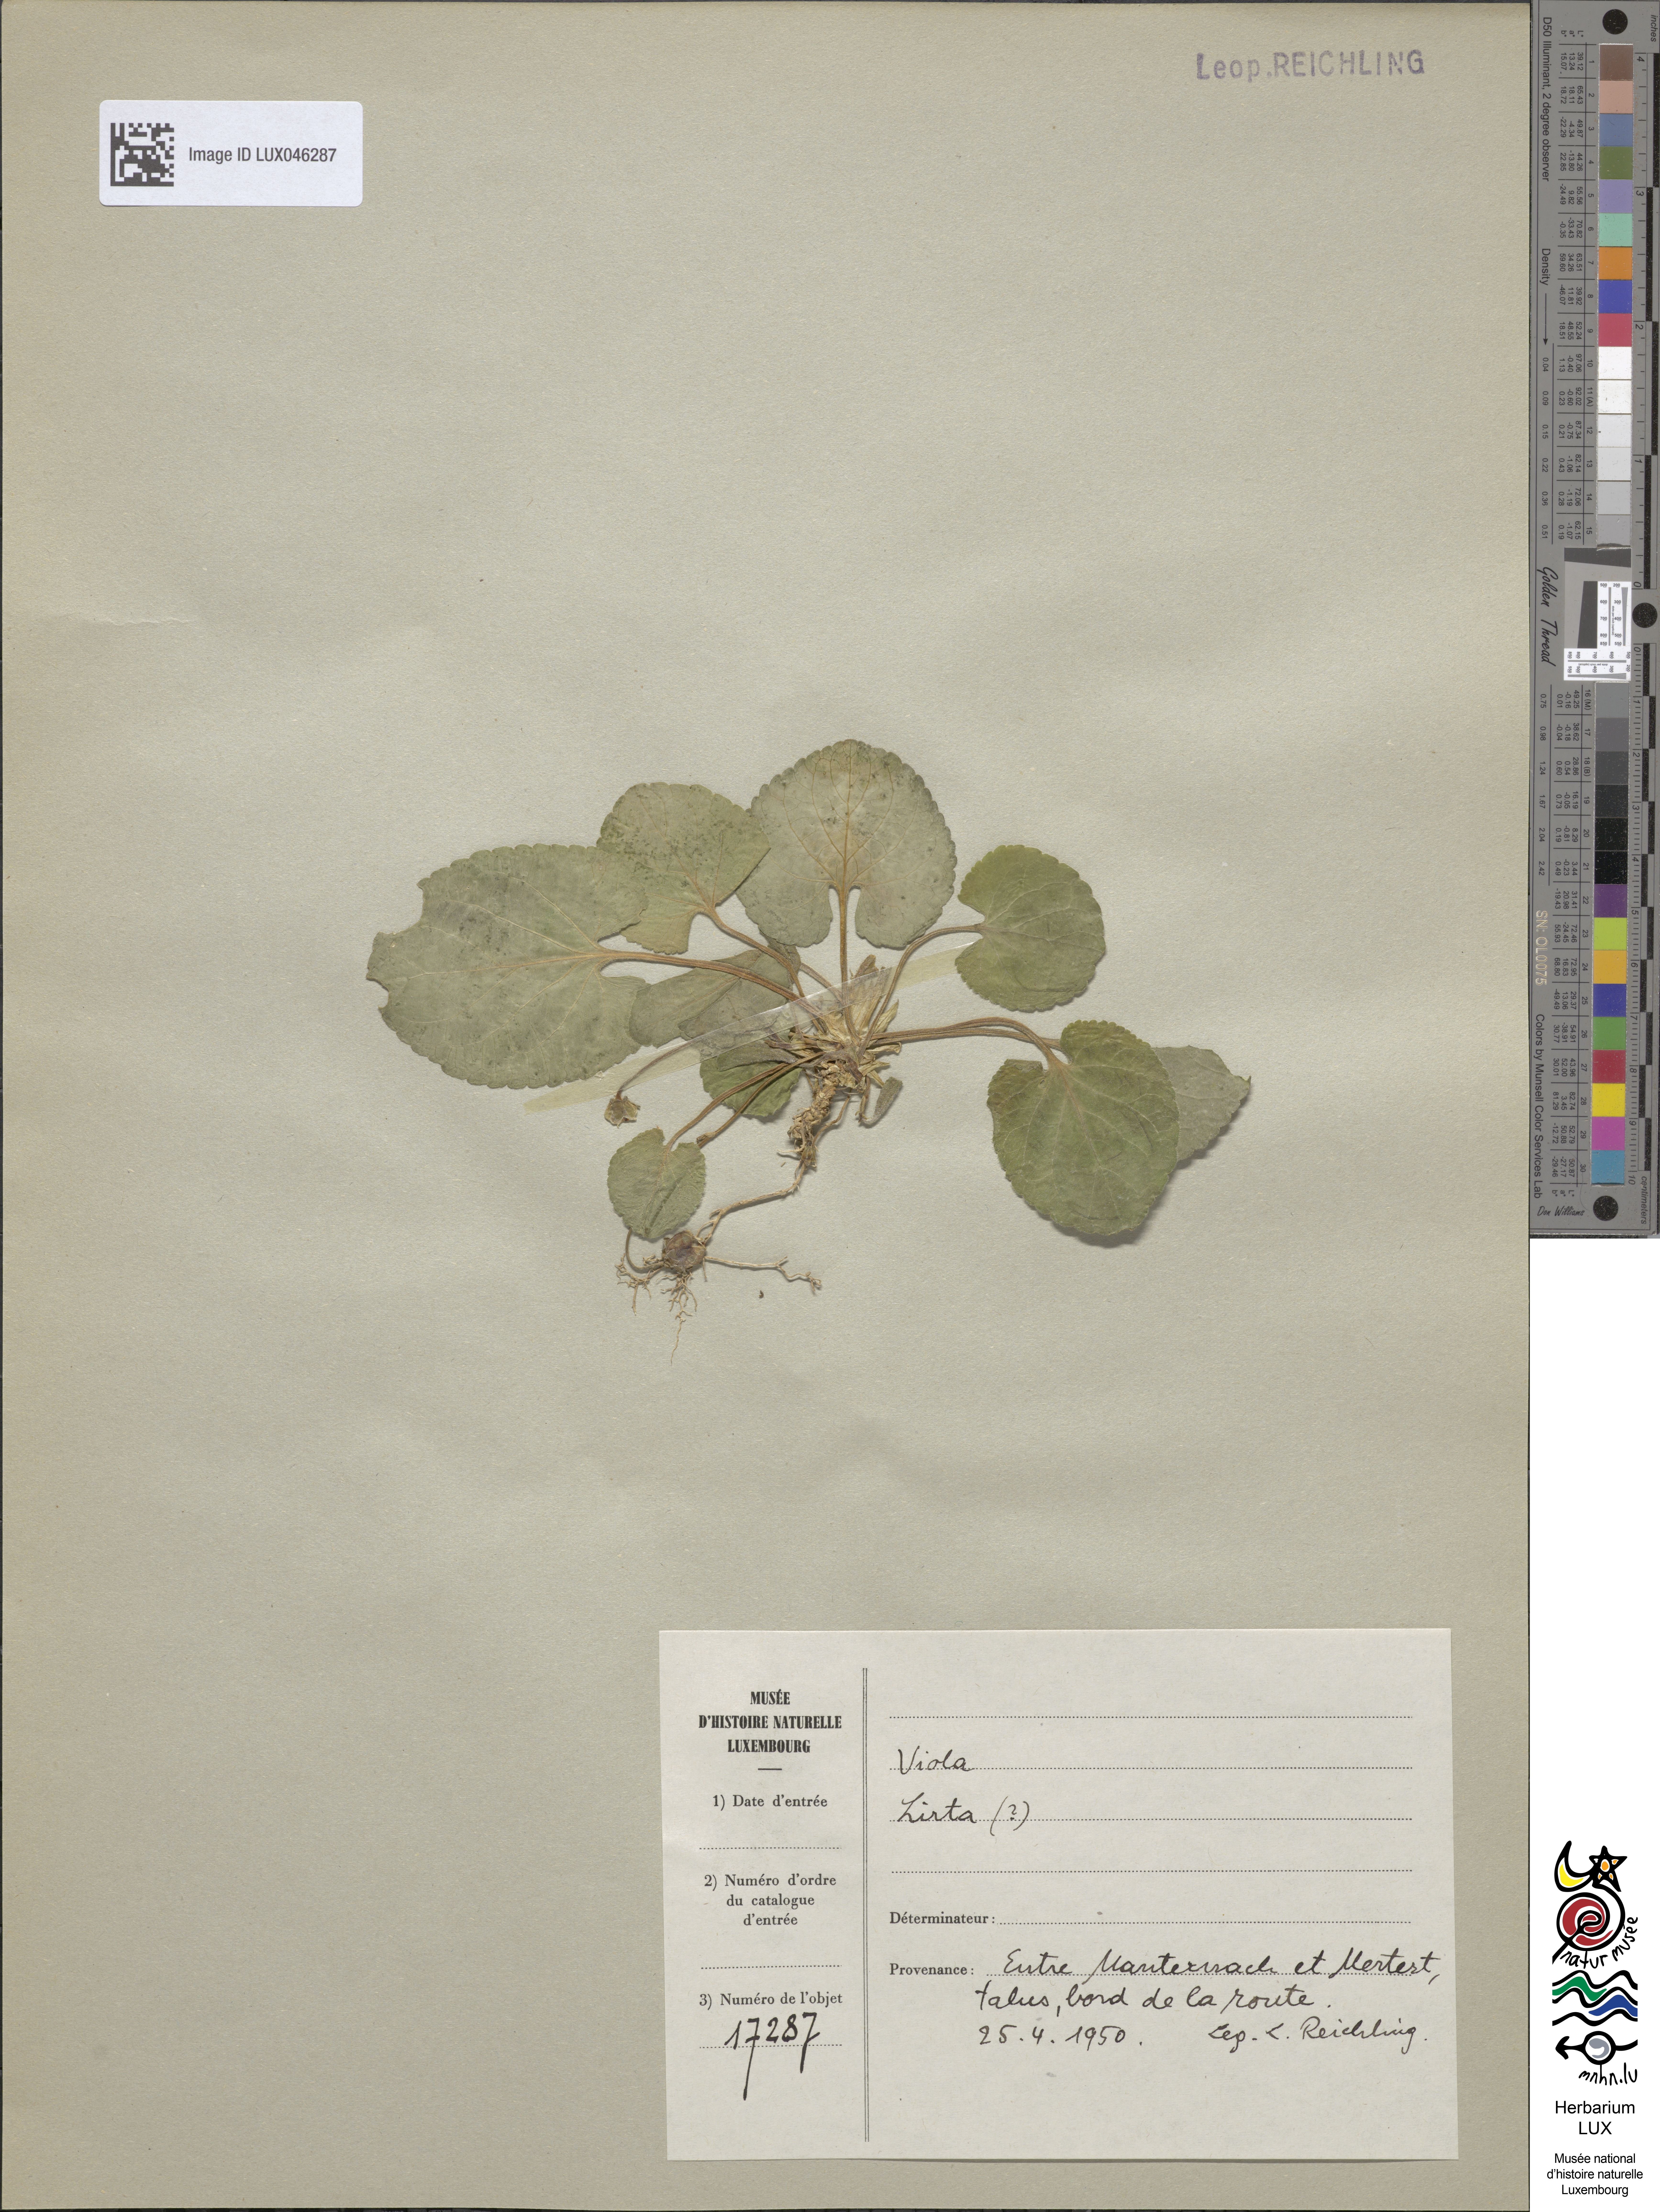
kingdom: Plantae
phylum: Tracheophyta
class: Magnoliopsida
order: Malpighiales
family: Violaceae
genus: Viola
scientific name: Viola hirta
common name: Hairy violet
